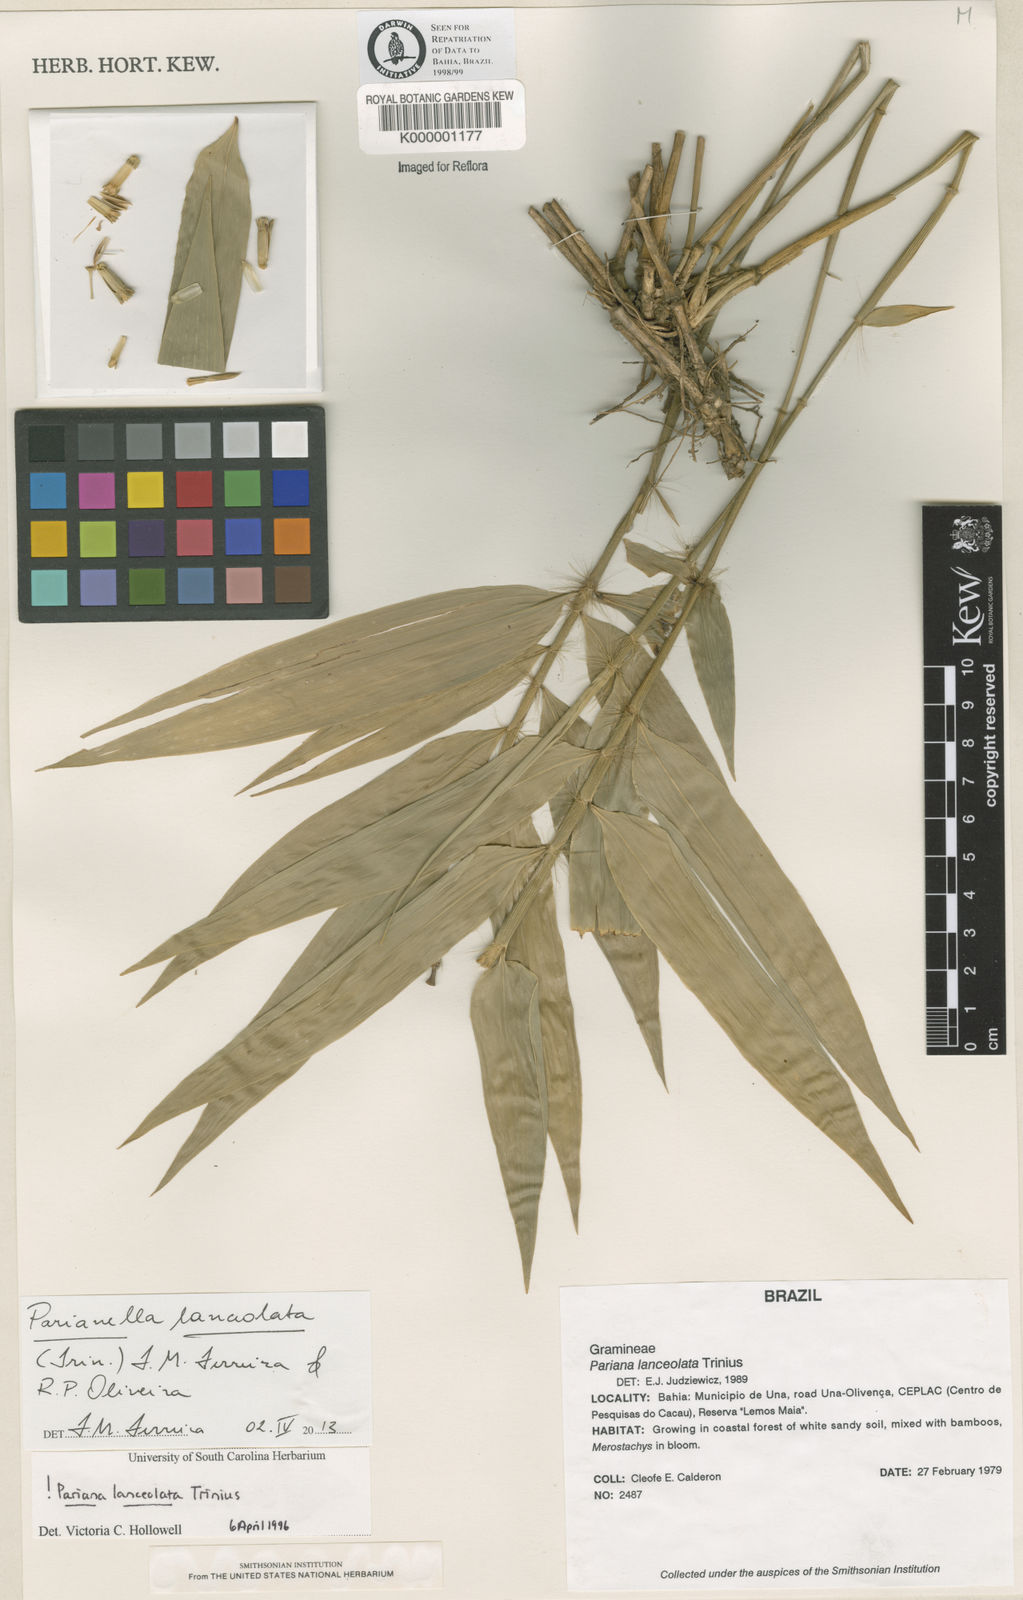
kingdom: Plantae
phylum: Tracheophyta
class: Liliopsida
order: Poales
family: Poaceae
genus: Parianella
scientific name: Parianella lanceolata
